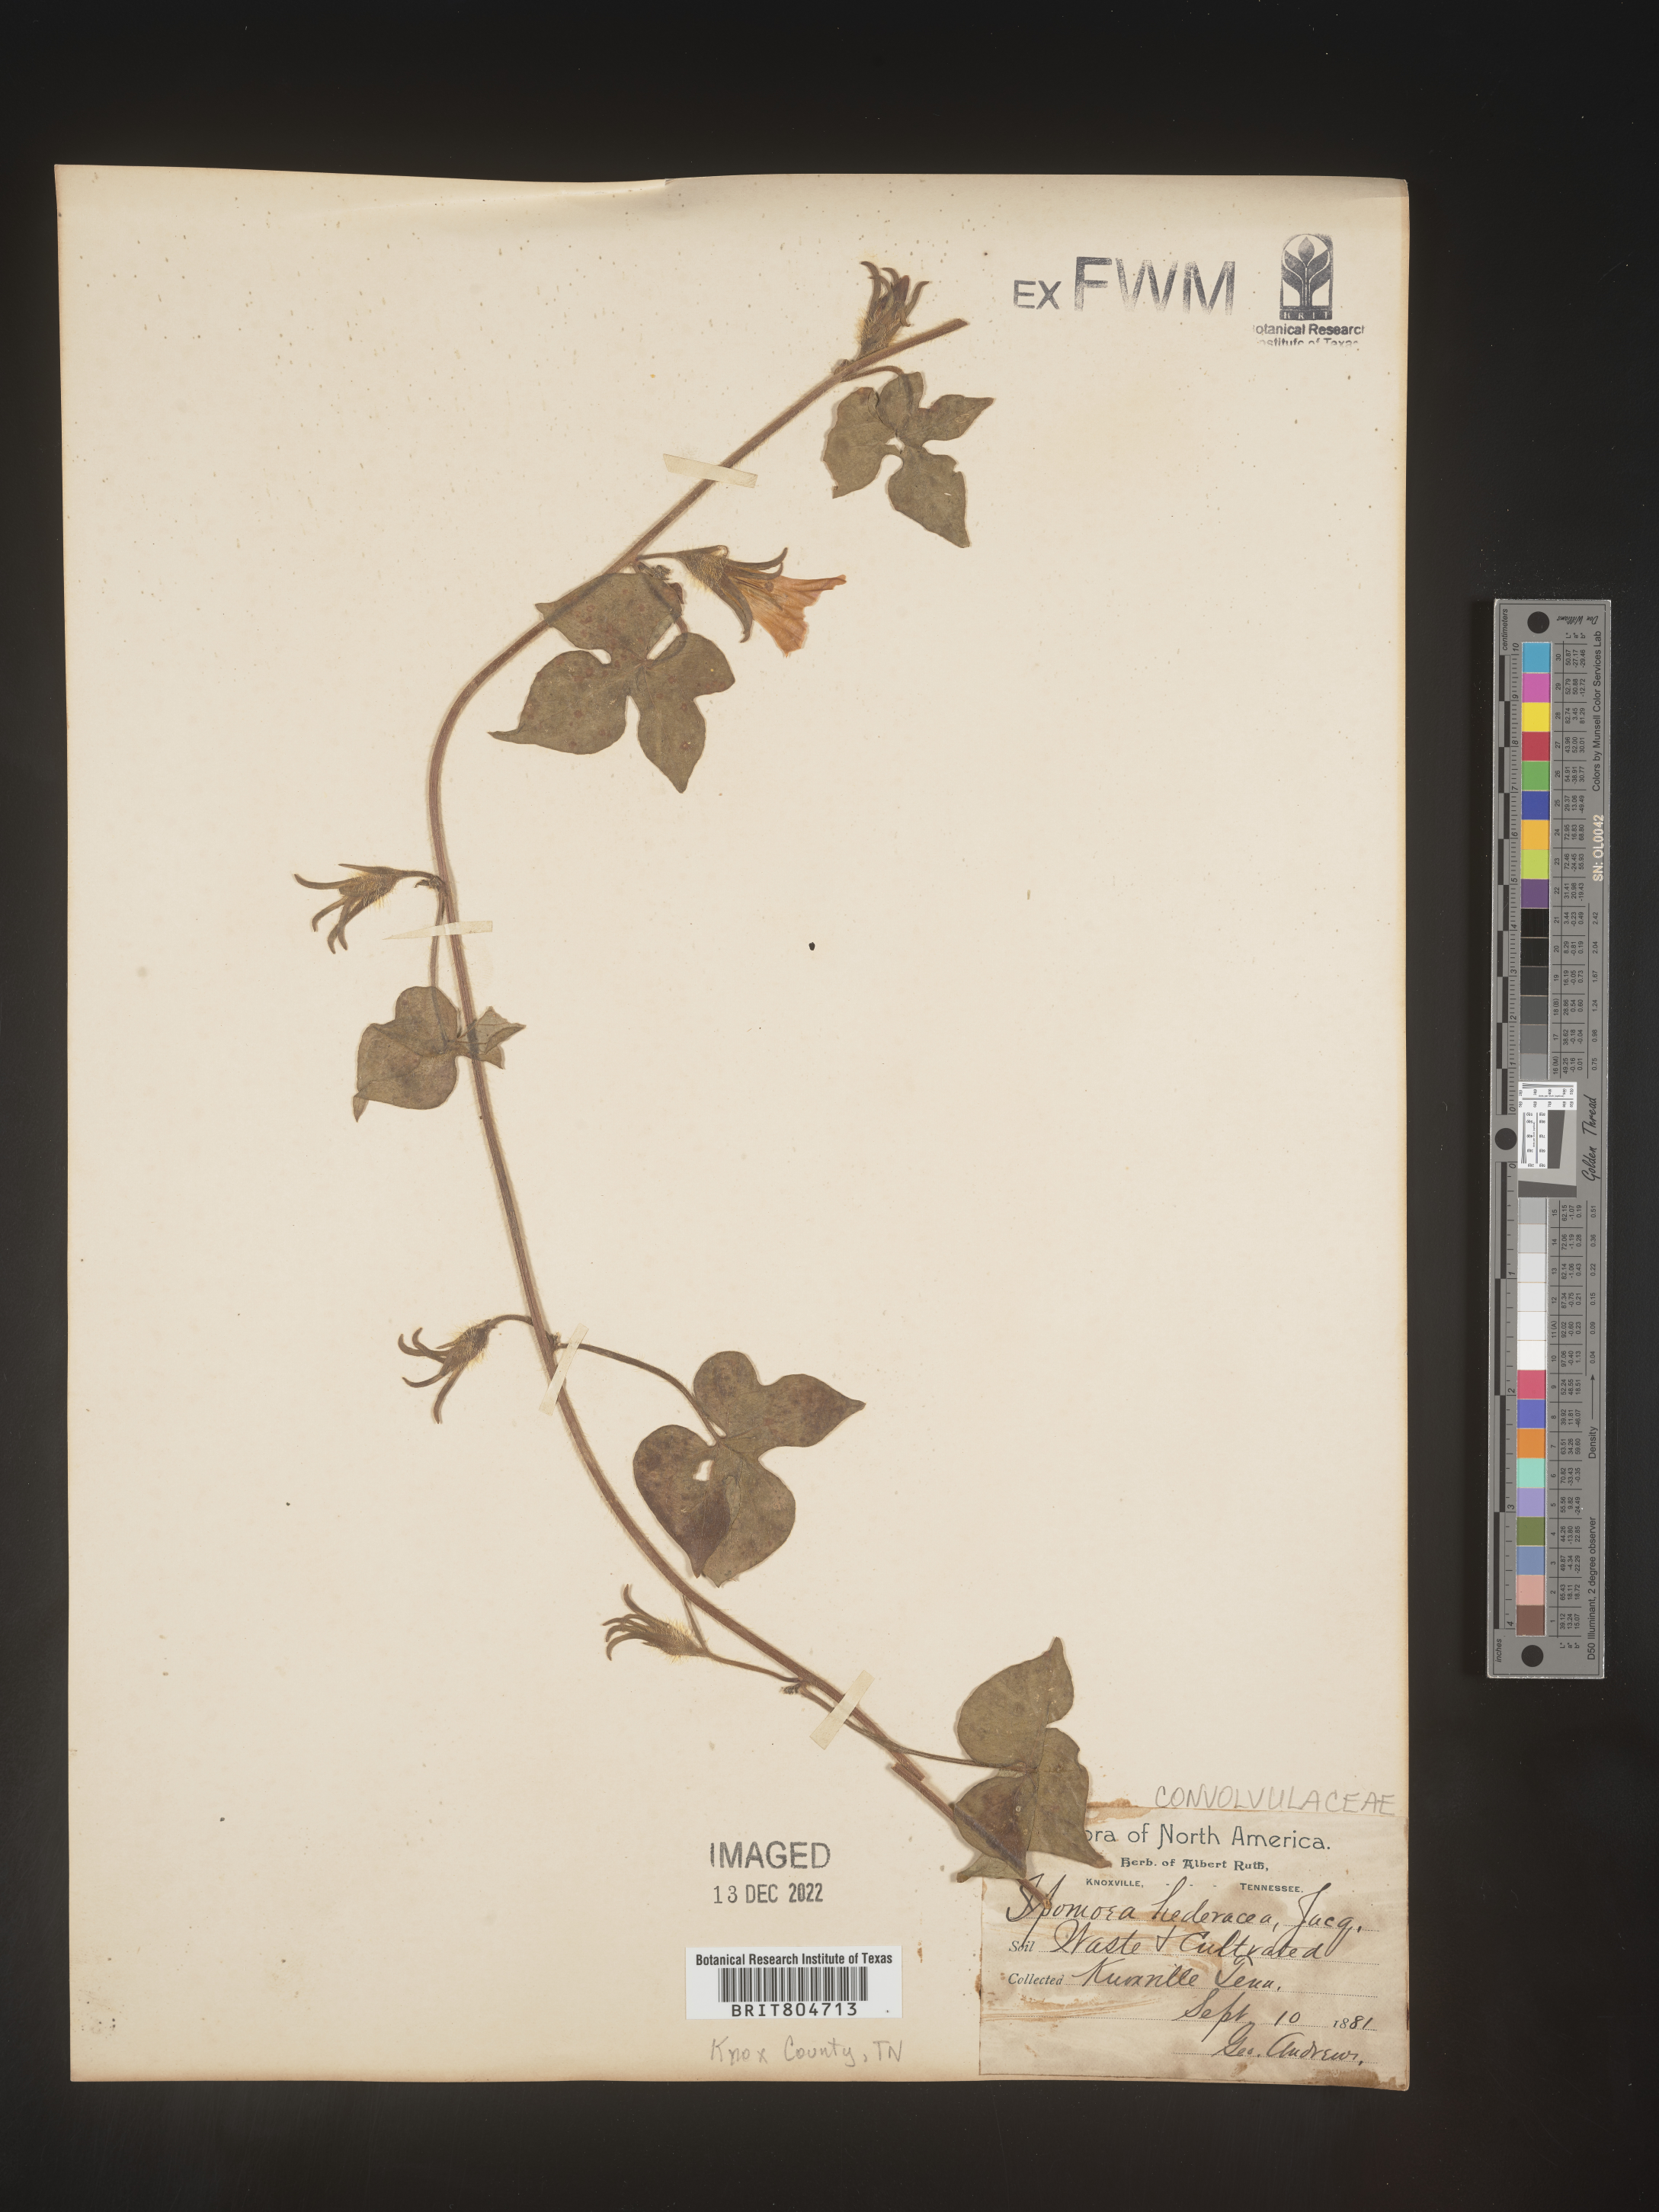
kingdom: Plantae
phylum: Tracheophyta
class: Magnoliopsida
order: Solanales
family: Convolvulaceae
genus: Ipomoea
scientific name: Ipomoea hederacea
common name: Ivy-leaved morning-glory
